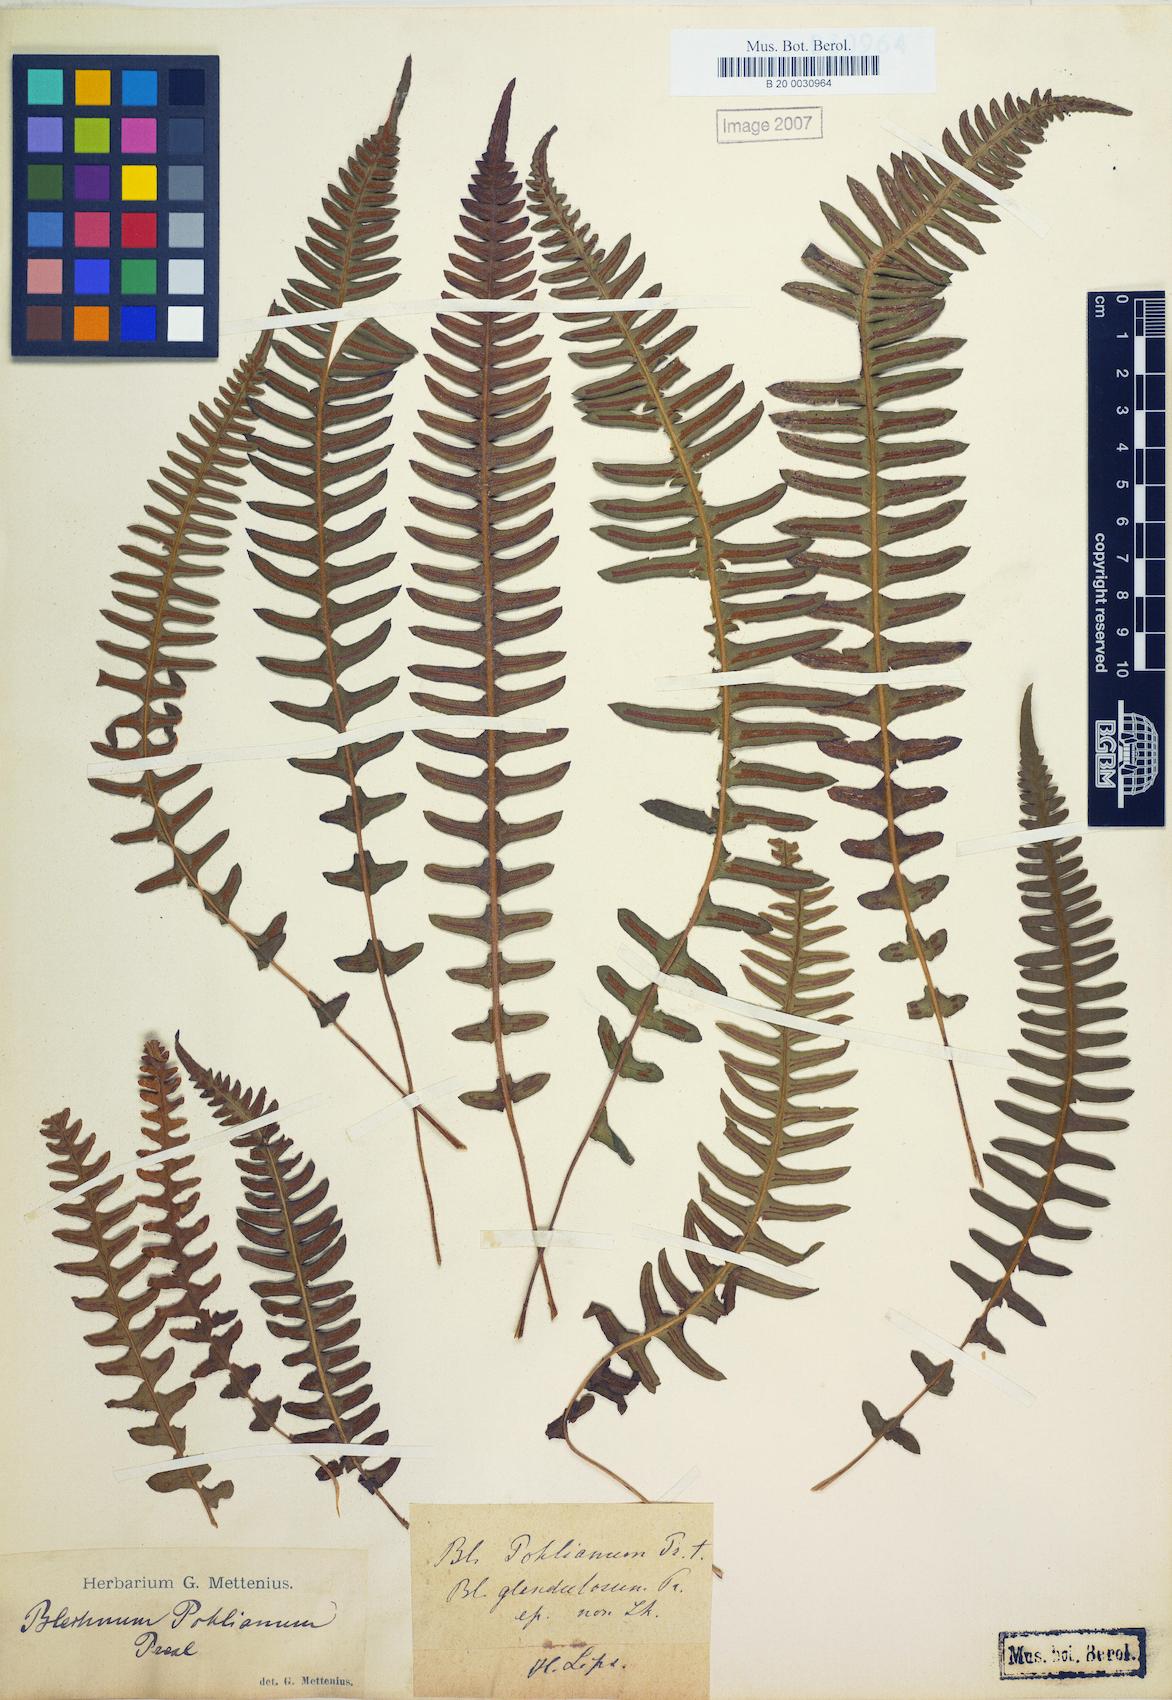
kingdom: Plantae
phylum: Tracheophyta
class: Polypodiopsida
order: Polypodiales
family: Blechnaceae
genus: Blechnum
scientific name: Blechnum laevigatum
